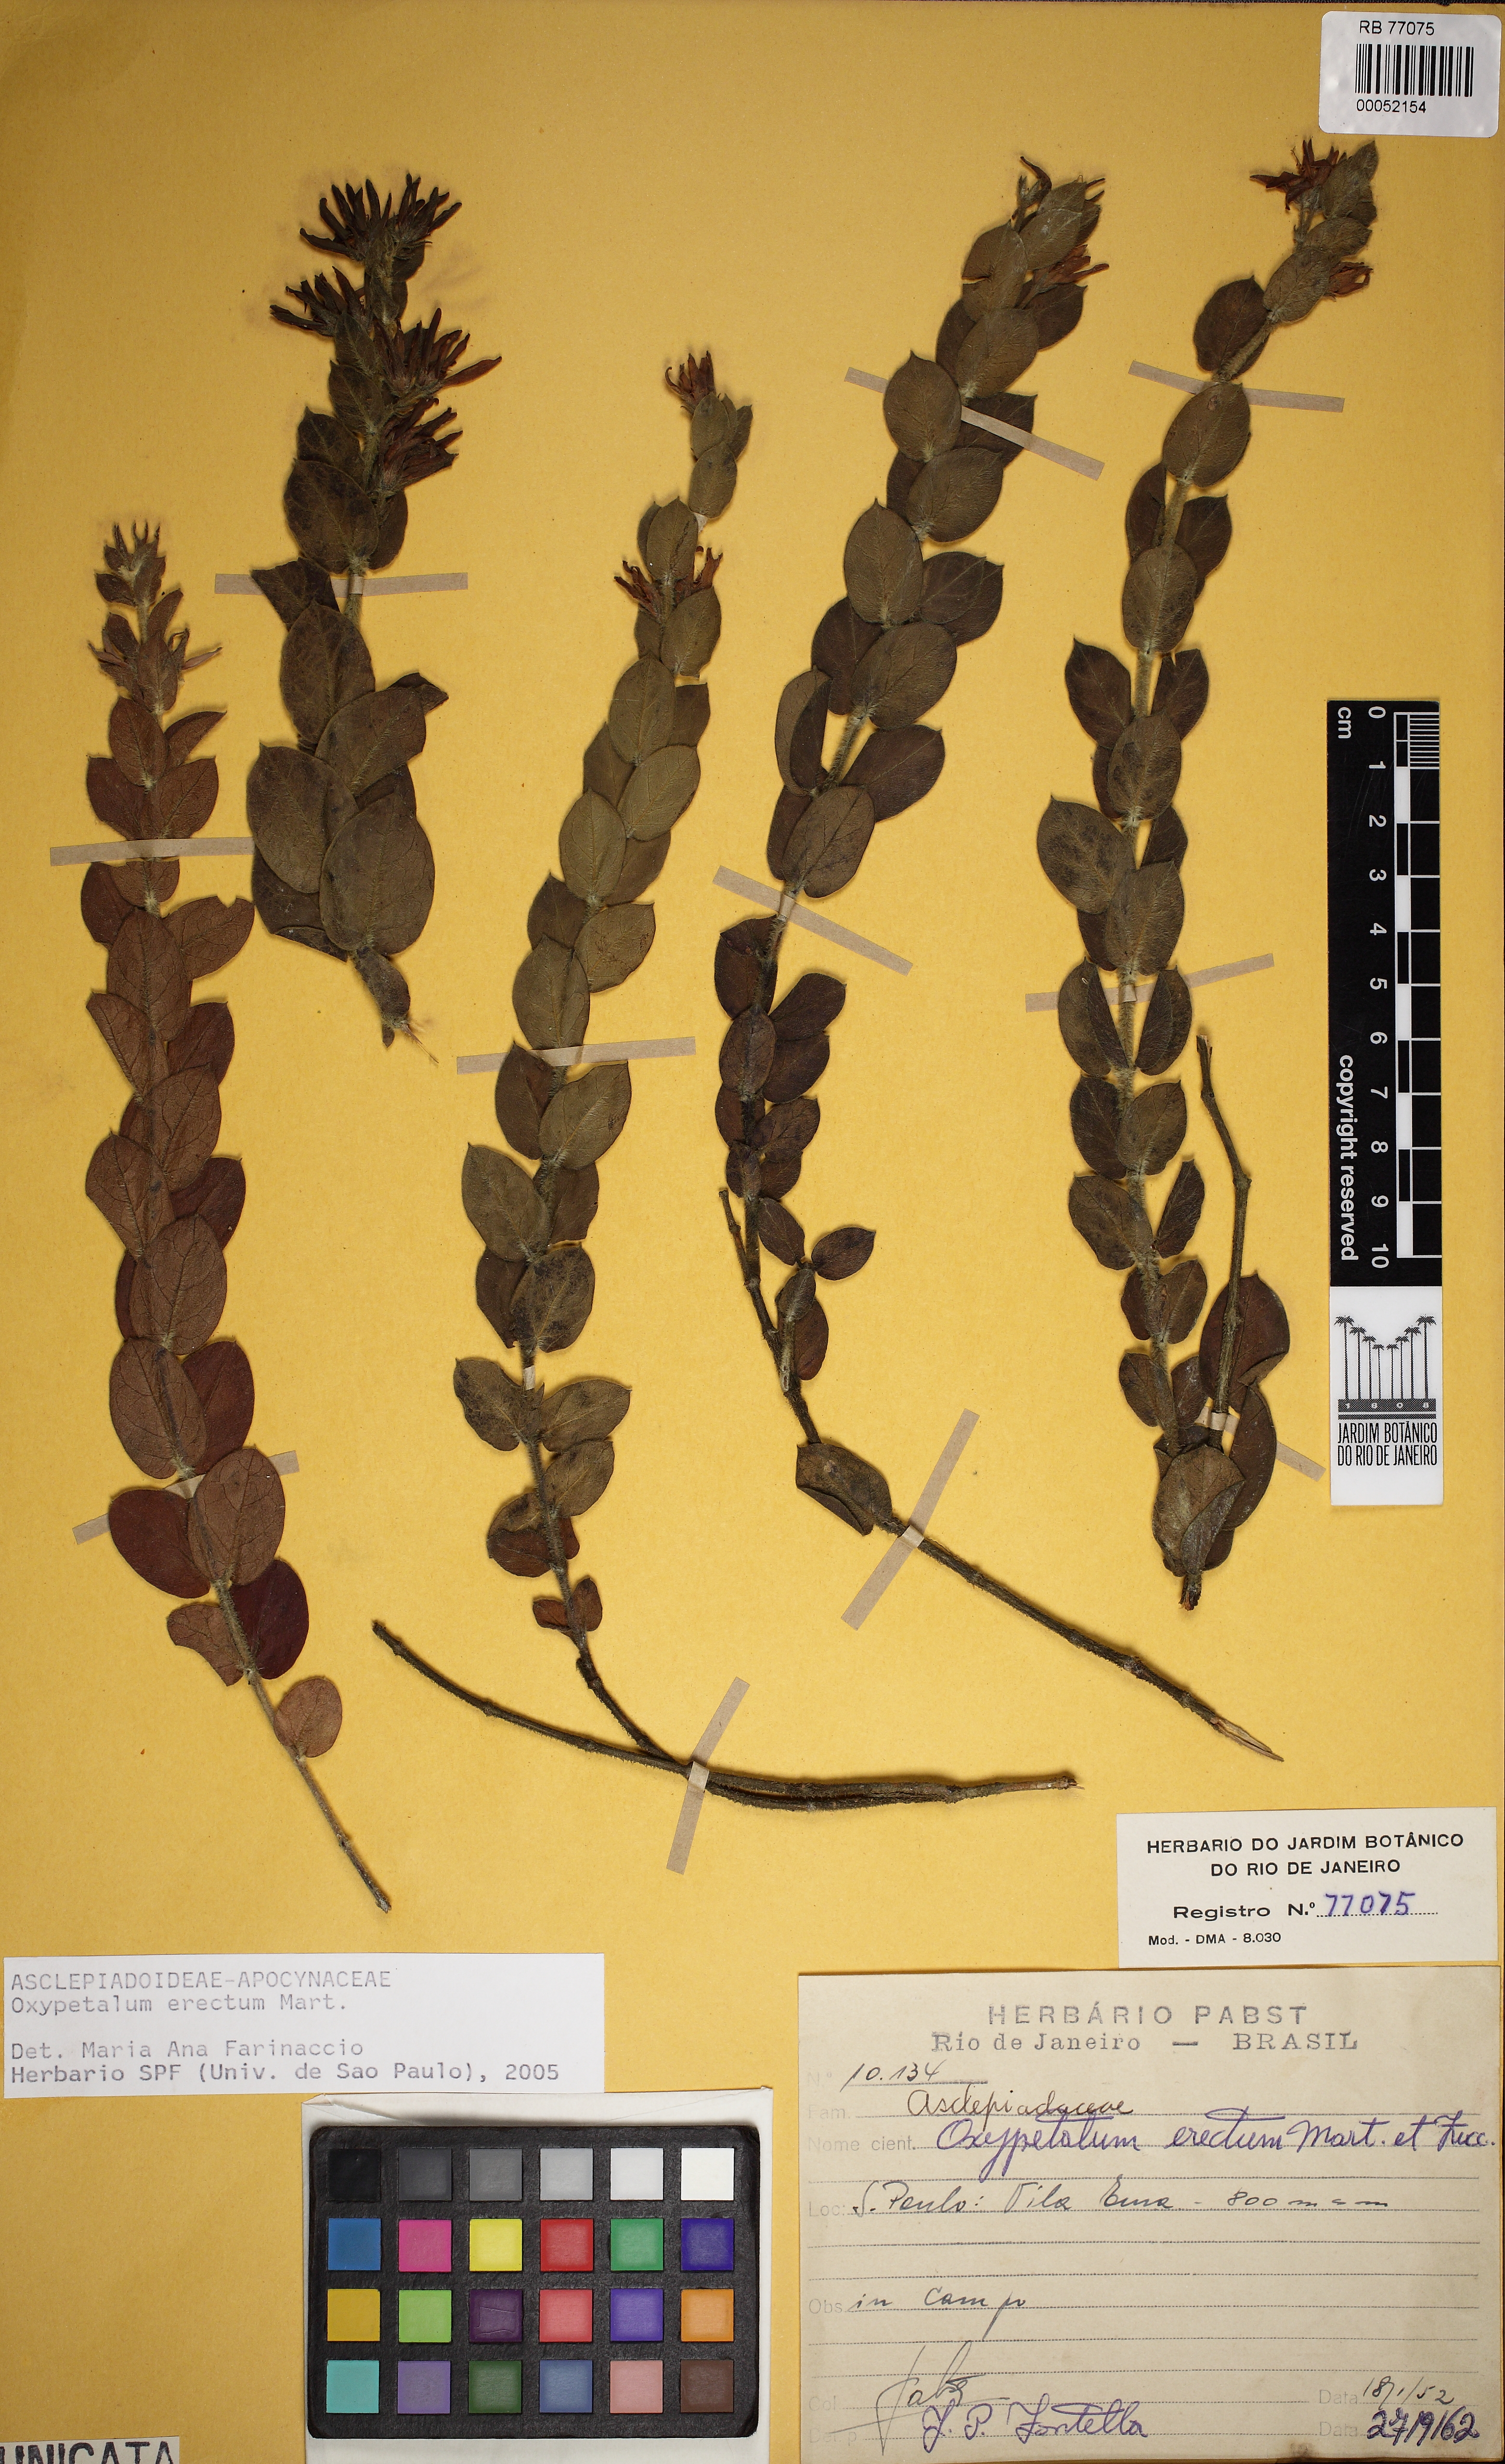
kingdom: Plantae
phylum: Tracheophyta
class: Magnoliopsida
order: Gentianales
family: Apocynaceae
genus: Oxypetalum
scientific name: Oxypetalum erectum
